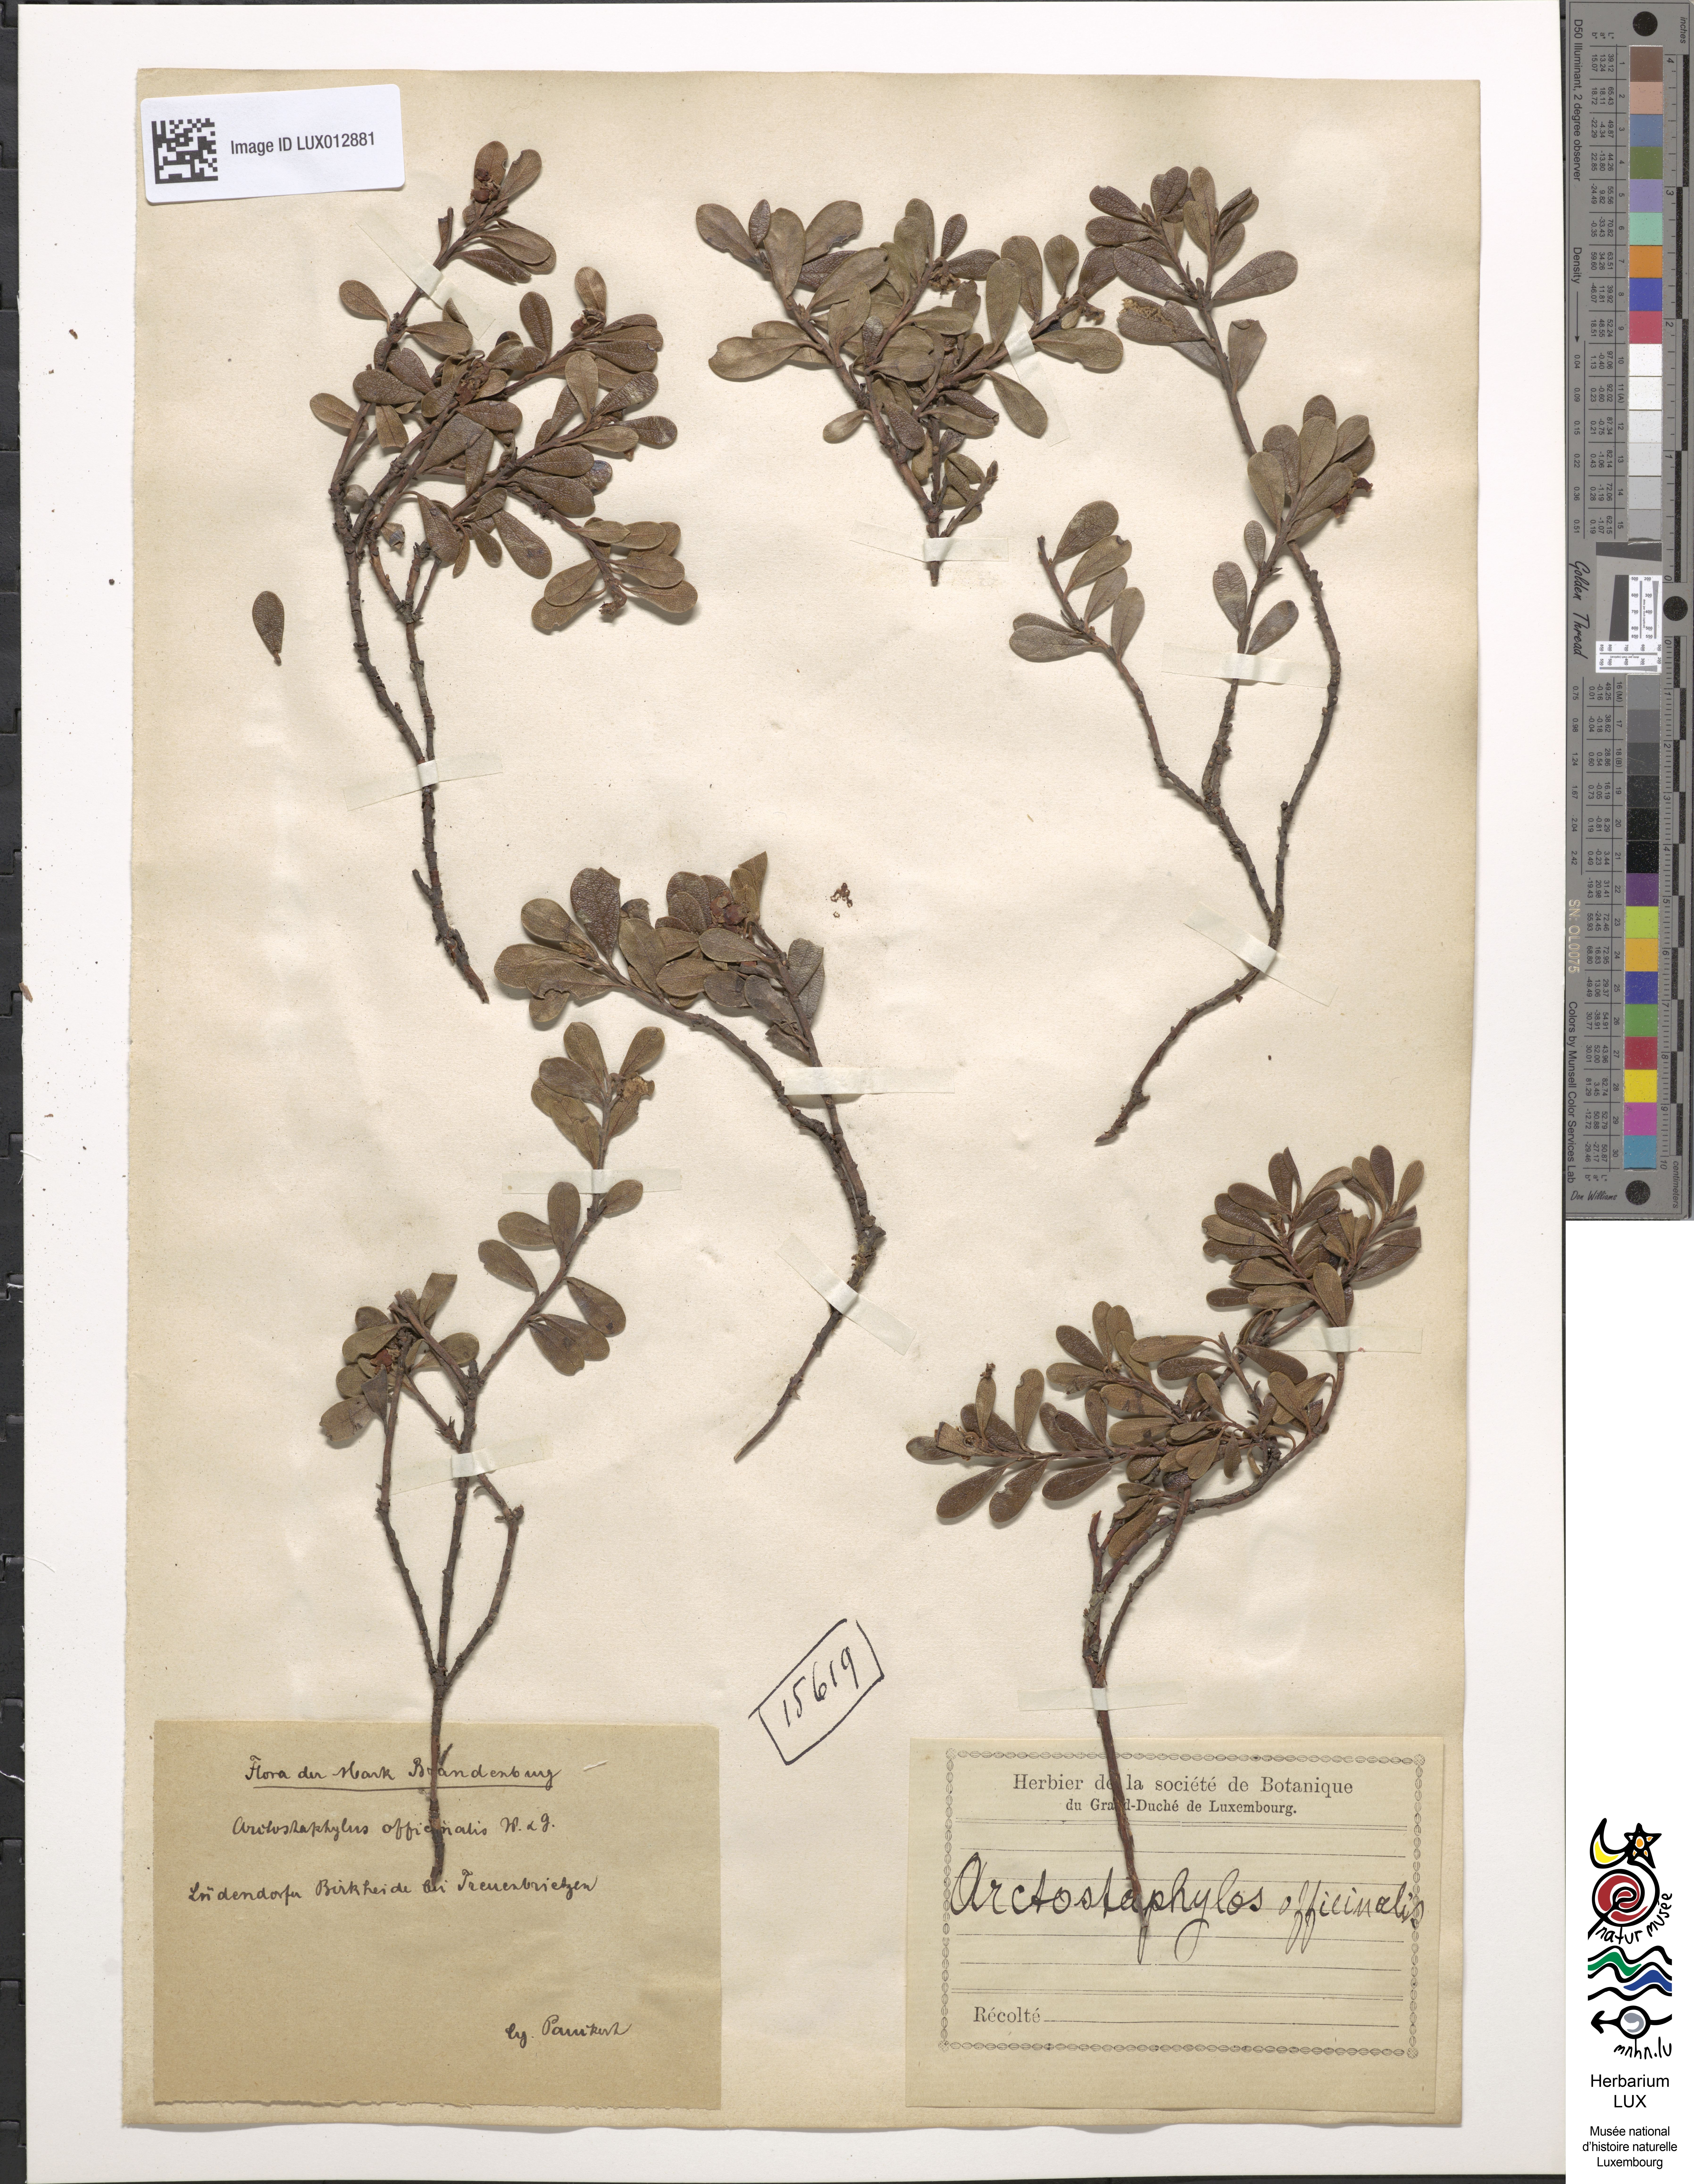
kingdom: Plantae
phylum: Tracheophyta
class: Magnoliopsida
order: Ericales
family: Ericaceae
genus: Arctostaphylos
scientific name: Arctostaphylos uva-ursi
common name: Bearberry
